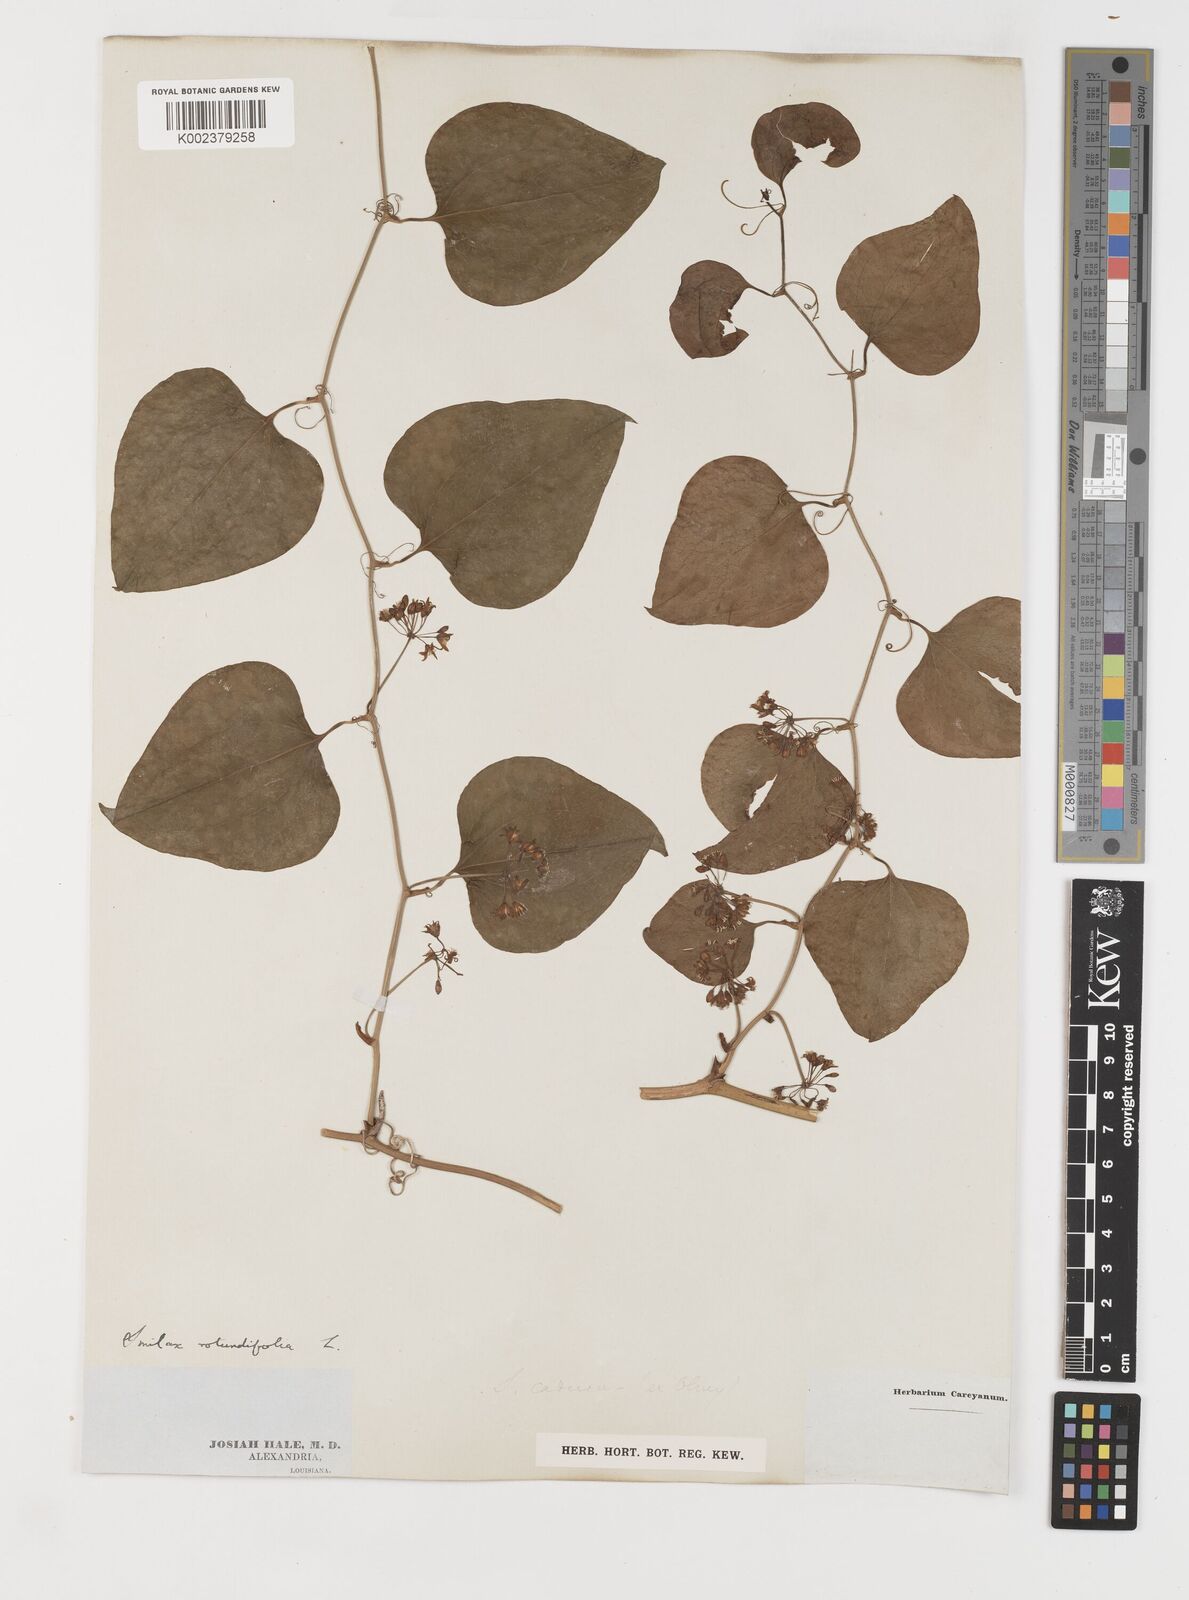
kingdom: Plantae
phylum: Tracheophyta
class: Liliopsida
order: Liliales
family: Smilacaceae
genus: Smilax
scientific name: Smilax rotundifolia
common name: Bullbriar
